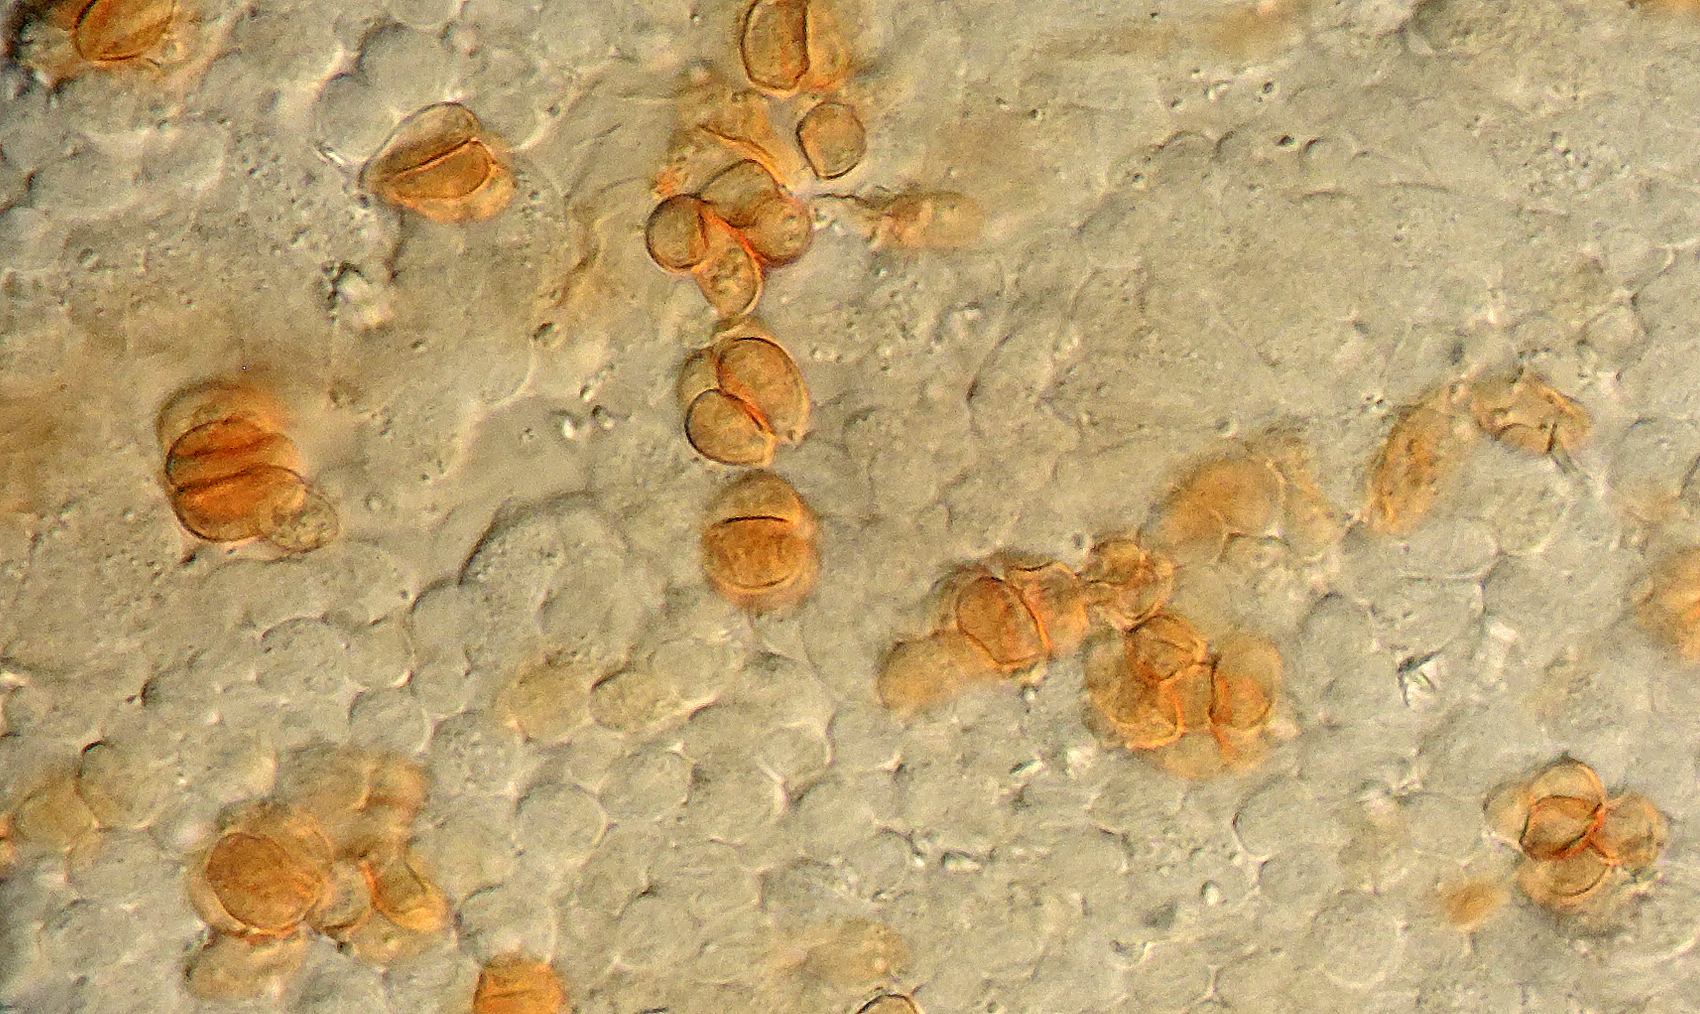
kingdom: Fungi
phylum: Basidiomycota
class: Agaricomycetes
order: Agaricales
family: Hymenogastraceae
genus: Galerina
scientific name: Galerina arctica
